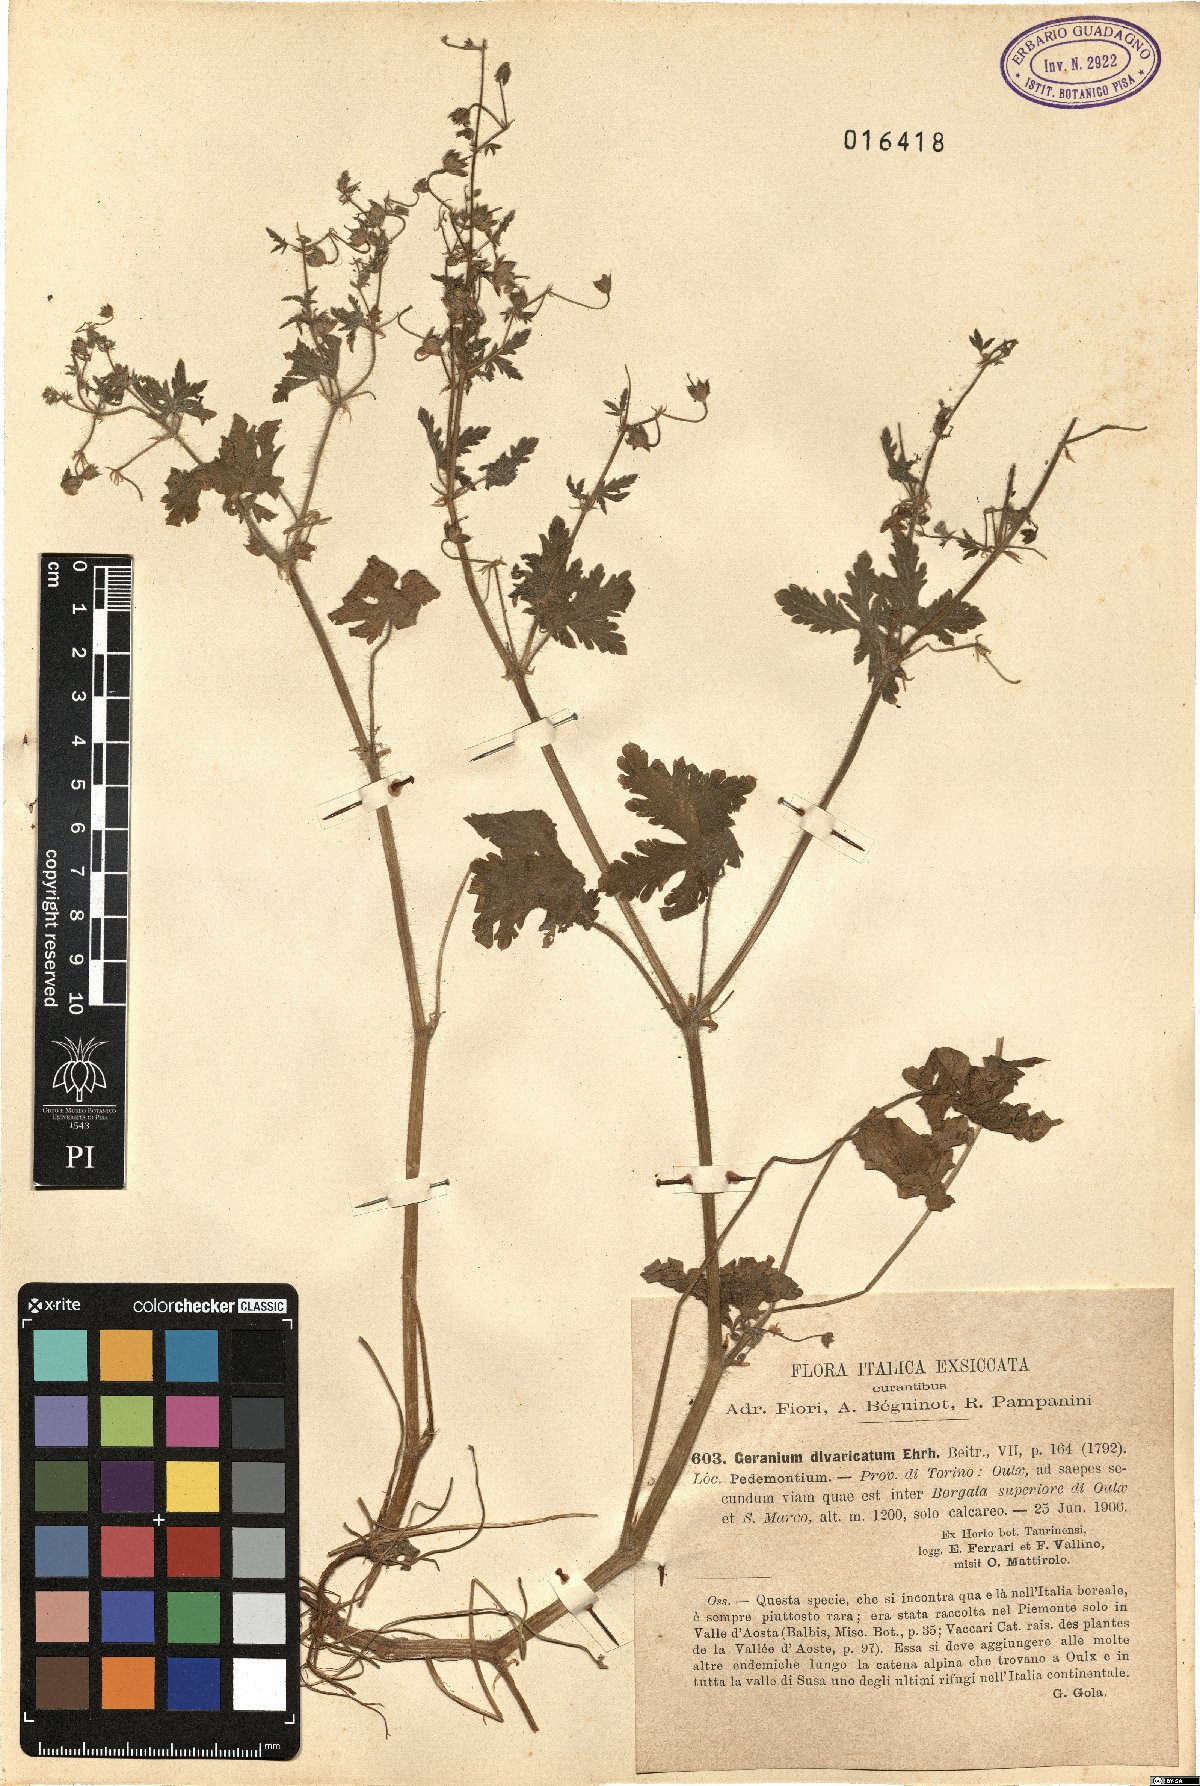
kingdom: Plantae
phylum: Tracheophyta
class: Magnoliopsida
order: Geraniales
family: Geraniaceae
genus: Geranium
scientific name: Geranium divaricatum
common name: Spreading crane's-bill
